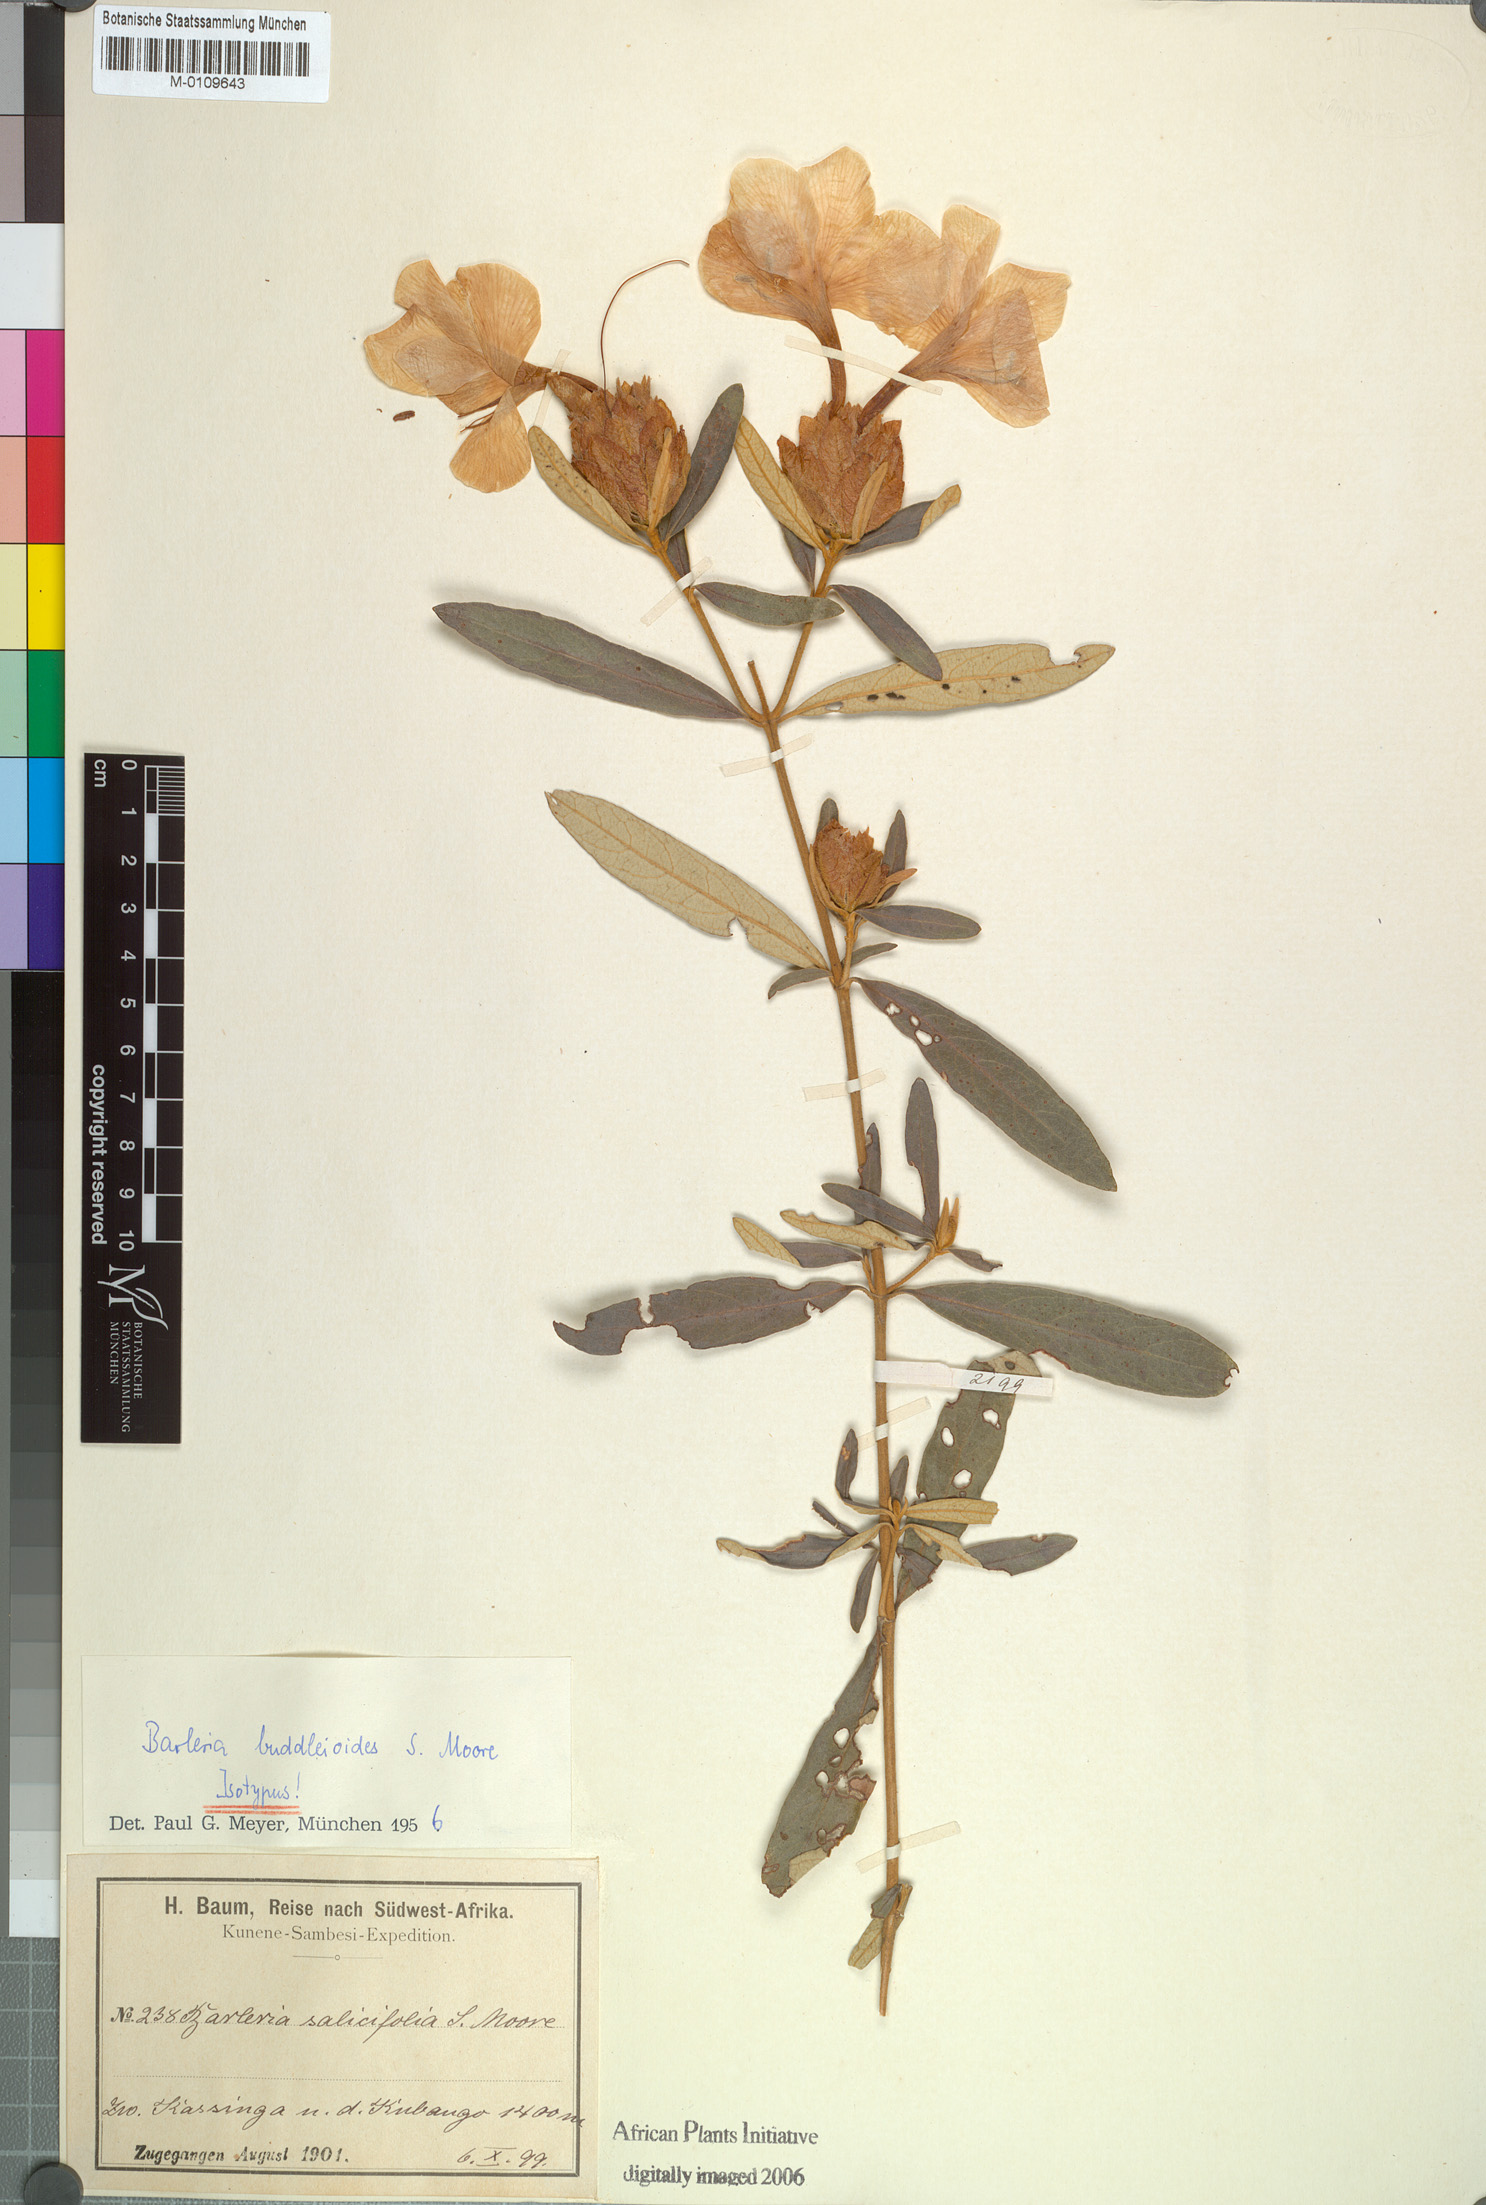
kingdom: Plantae
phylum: Tracheophyta
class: Magnoliopsida
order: Lamiales
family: Acanthaceae
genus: Barleria
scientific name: Barleria buddleioides
